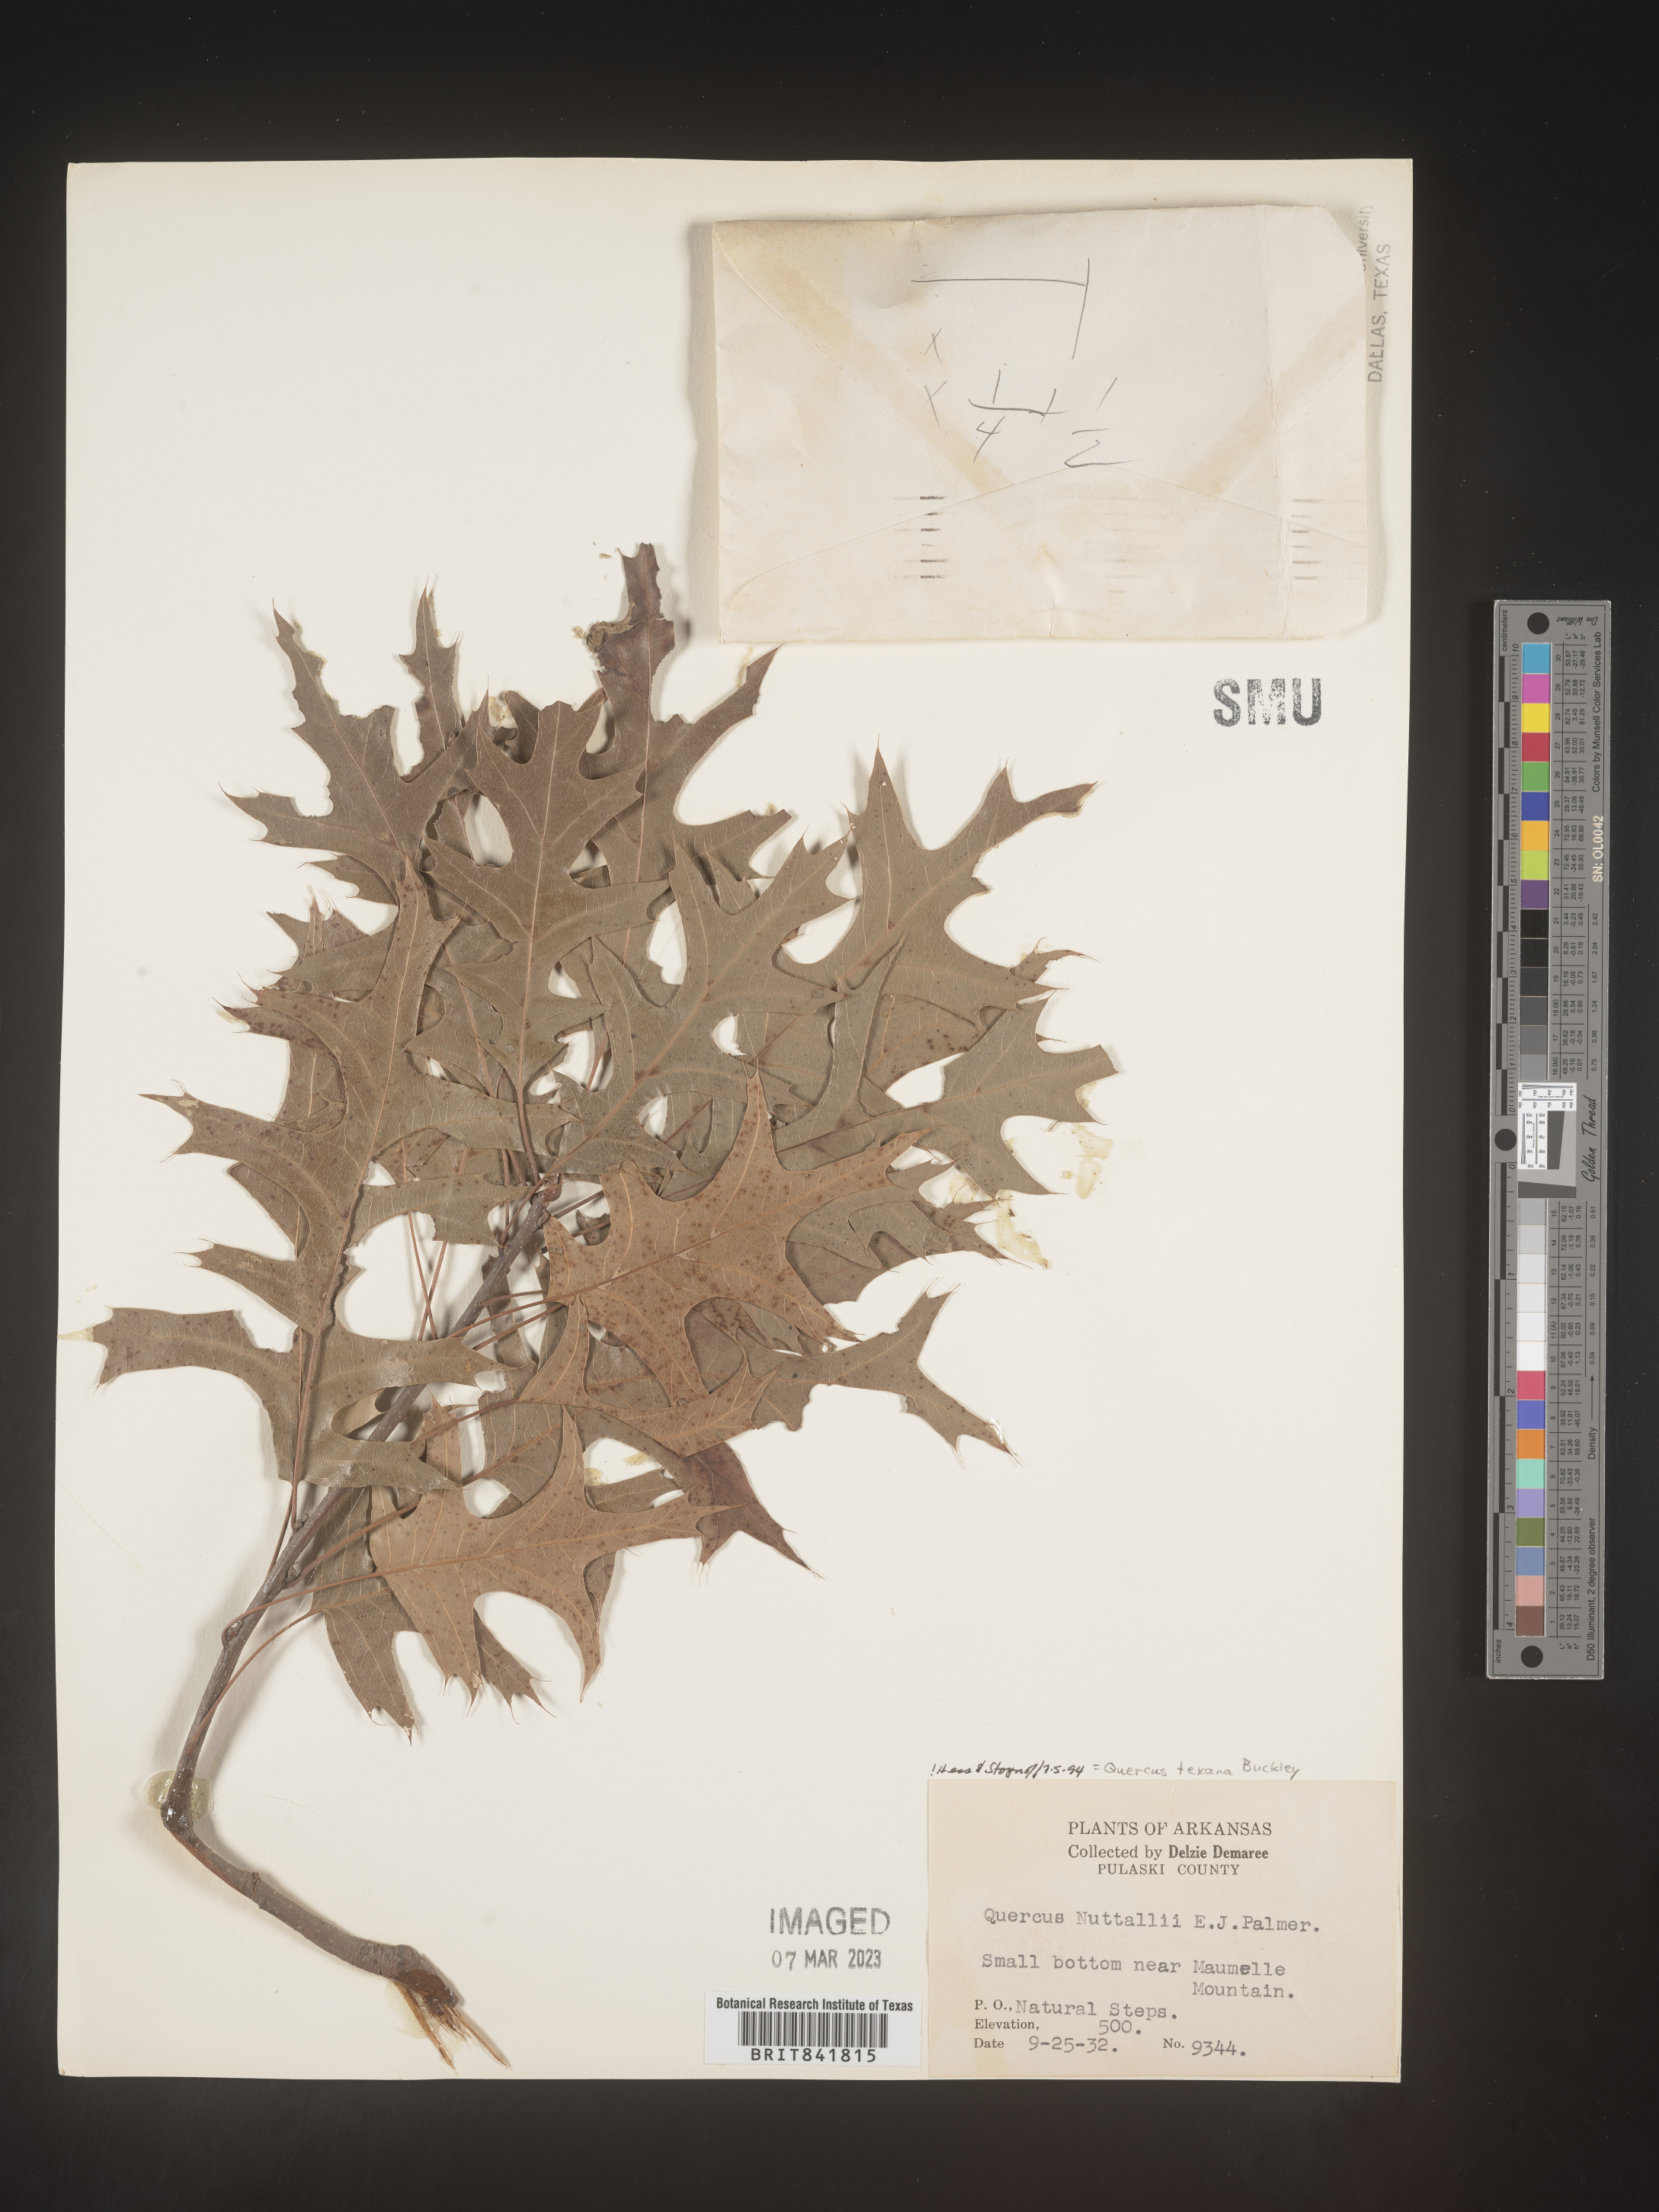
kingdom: Plantae
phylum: Tracheophyta
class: Magnoliopsida
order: Fagales
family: Fagaceae
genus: Quercus
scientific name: Quercus texana
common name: Nuttall oak
